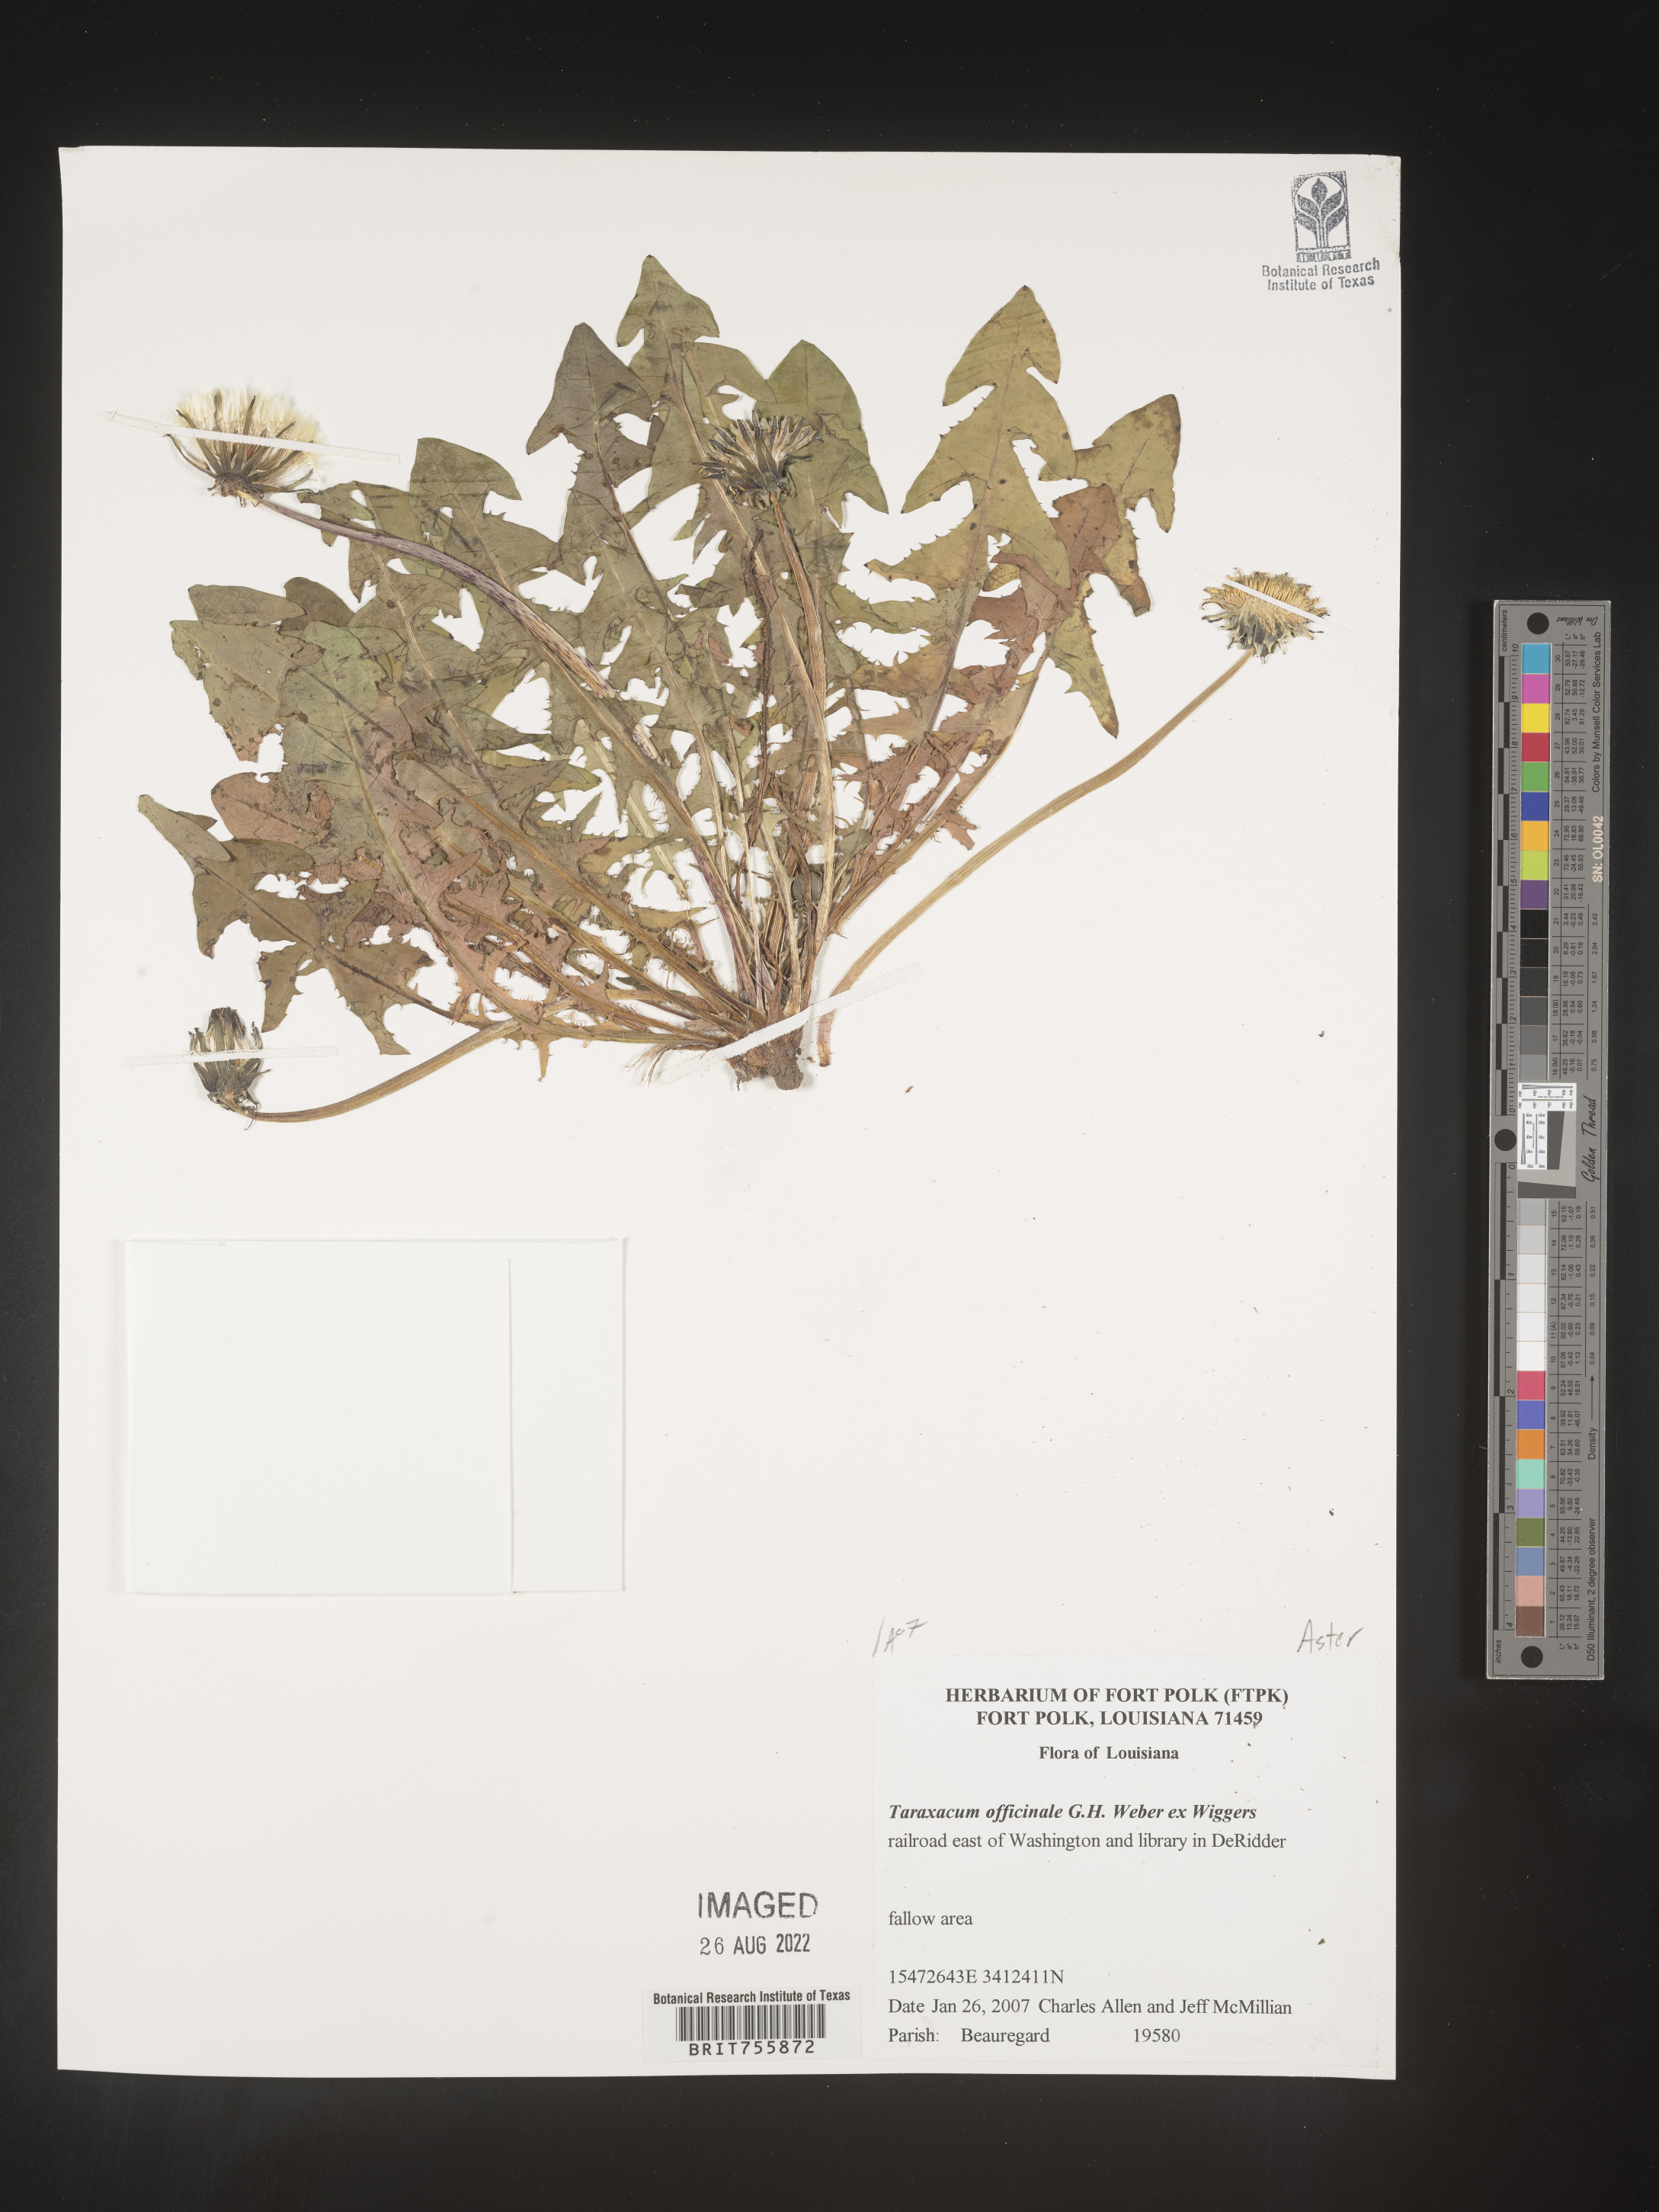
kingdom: Plantae
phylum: Tracheophyta
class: Magnoliopsida
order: Asterales
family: Asteraceae
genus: Taraxacum
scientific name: Taraxacum officinale
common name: Common dandelion
